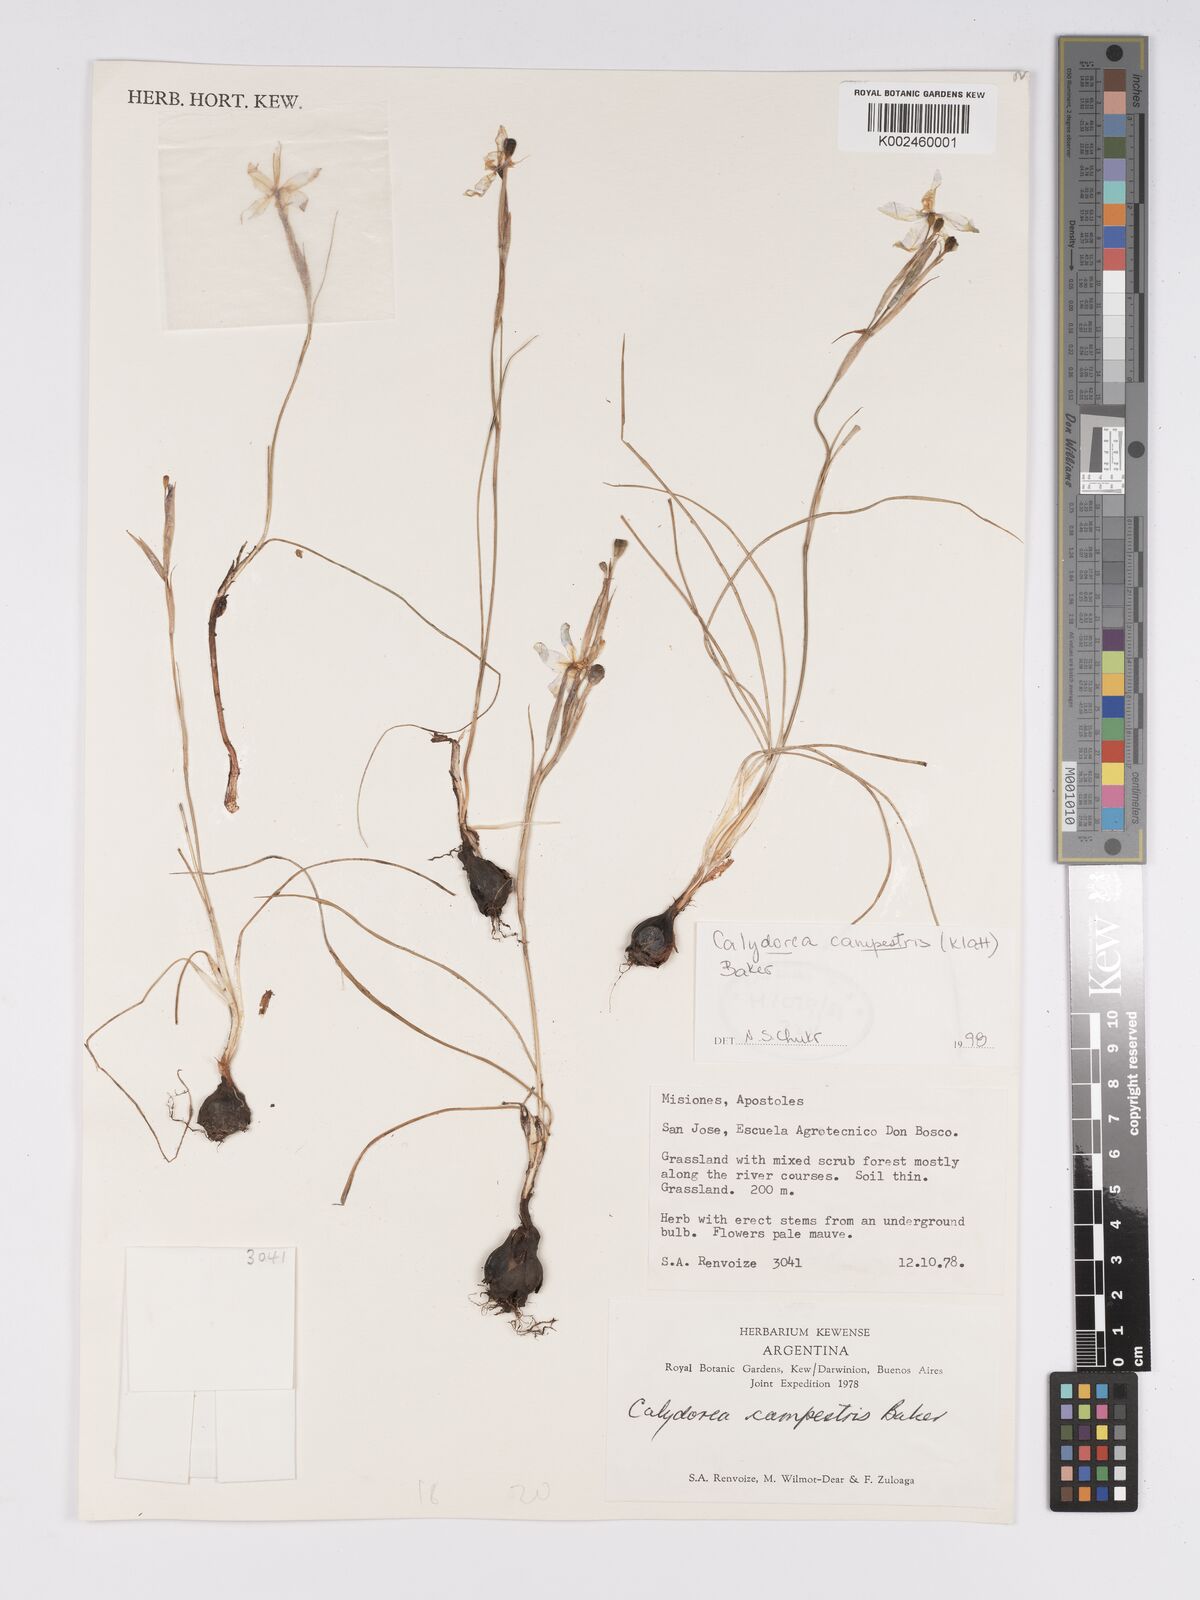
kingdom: Plantae
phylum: Tracheophyta
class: Liliopsida
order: Asparagales
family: Iridaceae
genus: Calydorea
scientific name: Calydorea campestris
